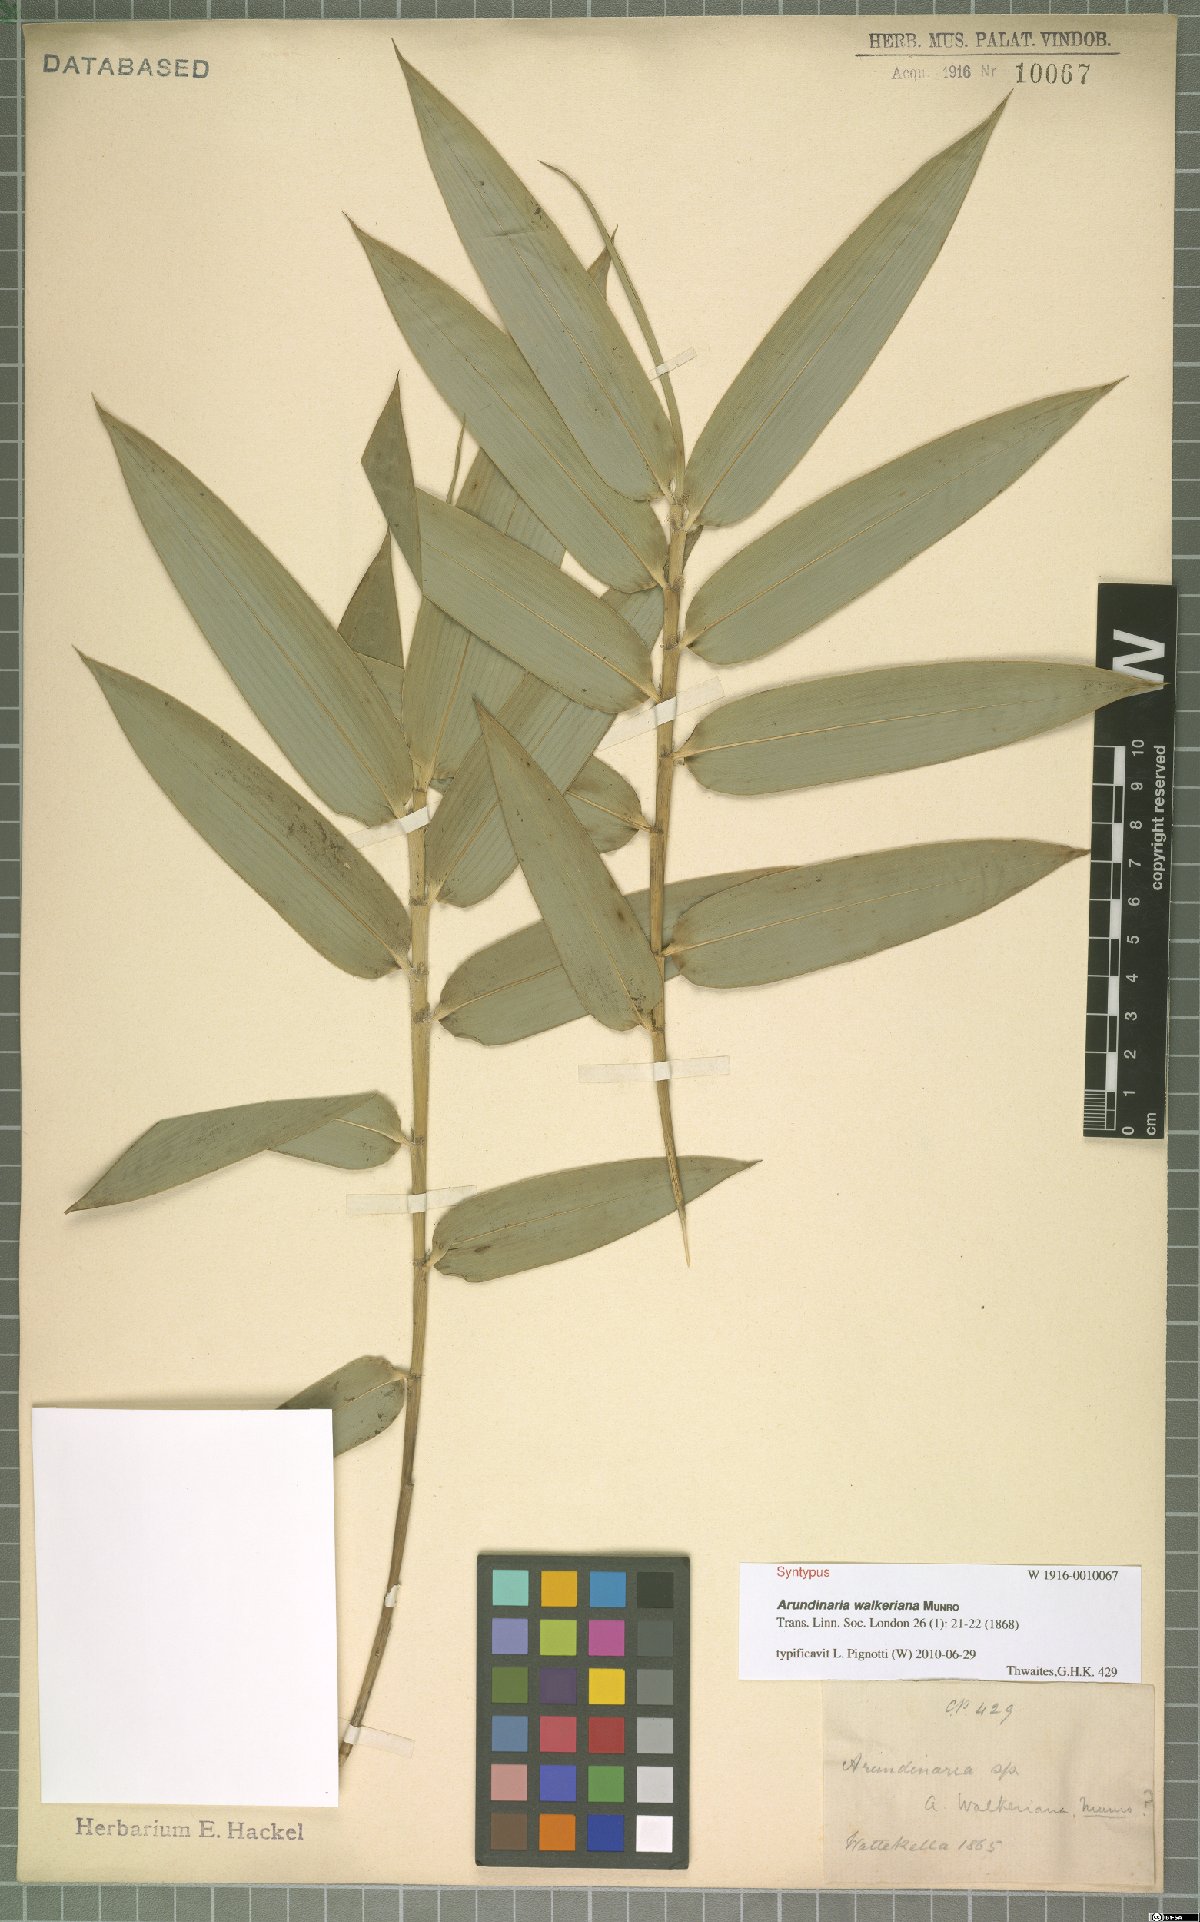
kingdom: Plantae
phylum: Tracheophyta
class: Liliopsida
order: Poales
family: Poaceae
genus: Kuruna
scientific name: Kuruna walkeriana
